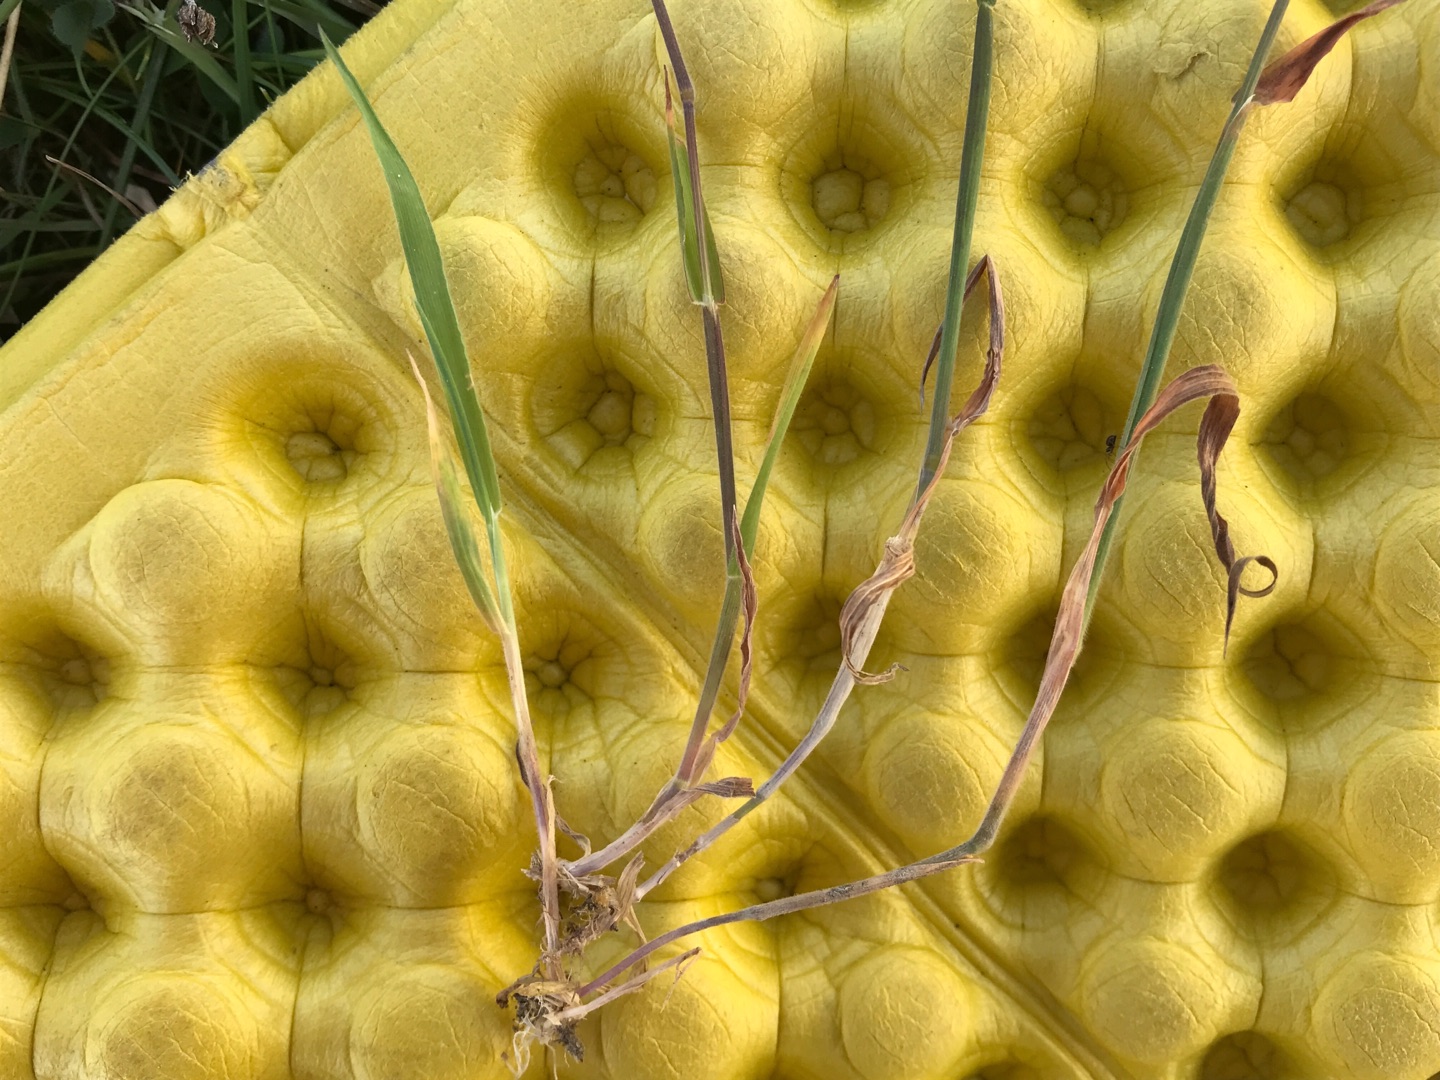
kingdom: Plantae
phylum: Tracheophyta
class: Liliopsida
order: Poales
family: Poaceae
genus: Holcus
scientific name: Holcus lanatus
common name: Fløjlsgræs
